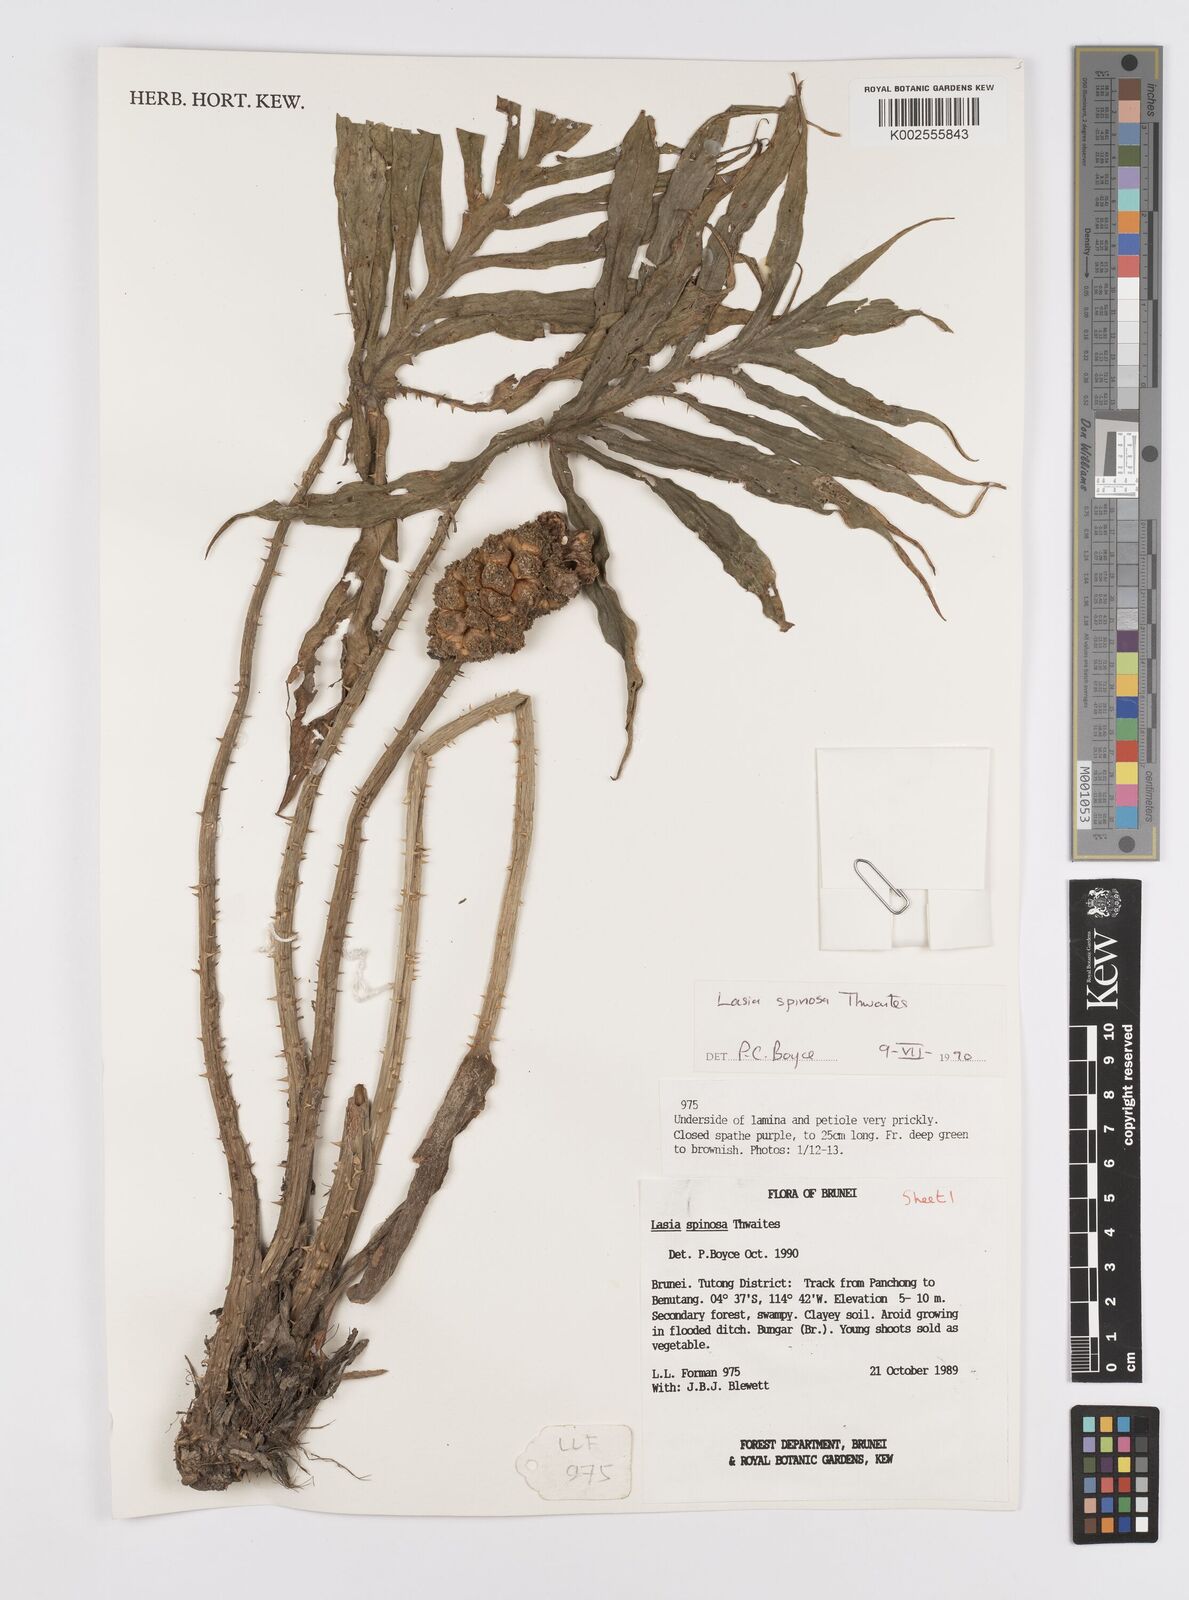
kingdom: Plantae
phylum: Tracheophyta
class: Liliopsida
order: Alismatales
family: Araceae
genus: Lasia
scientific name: Lasia spinosa
